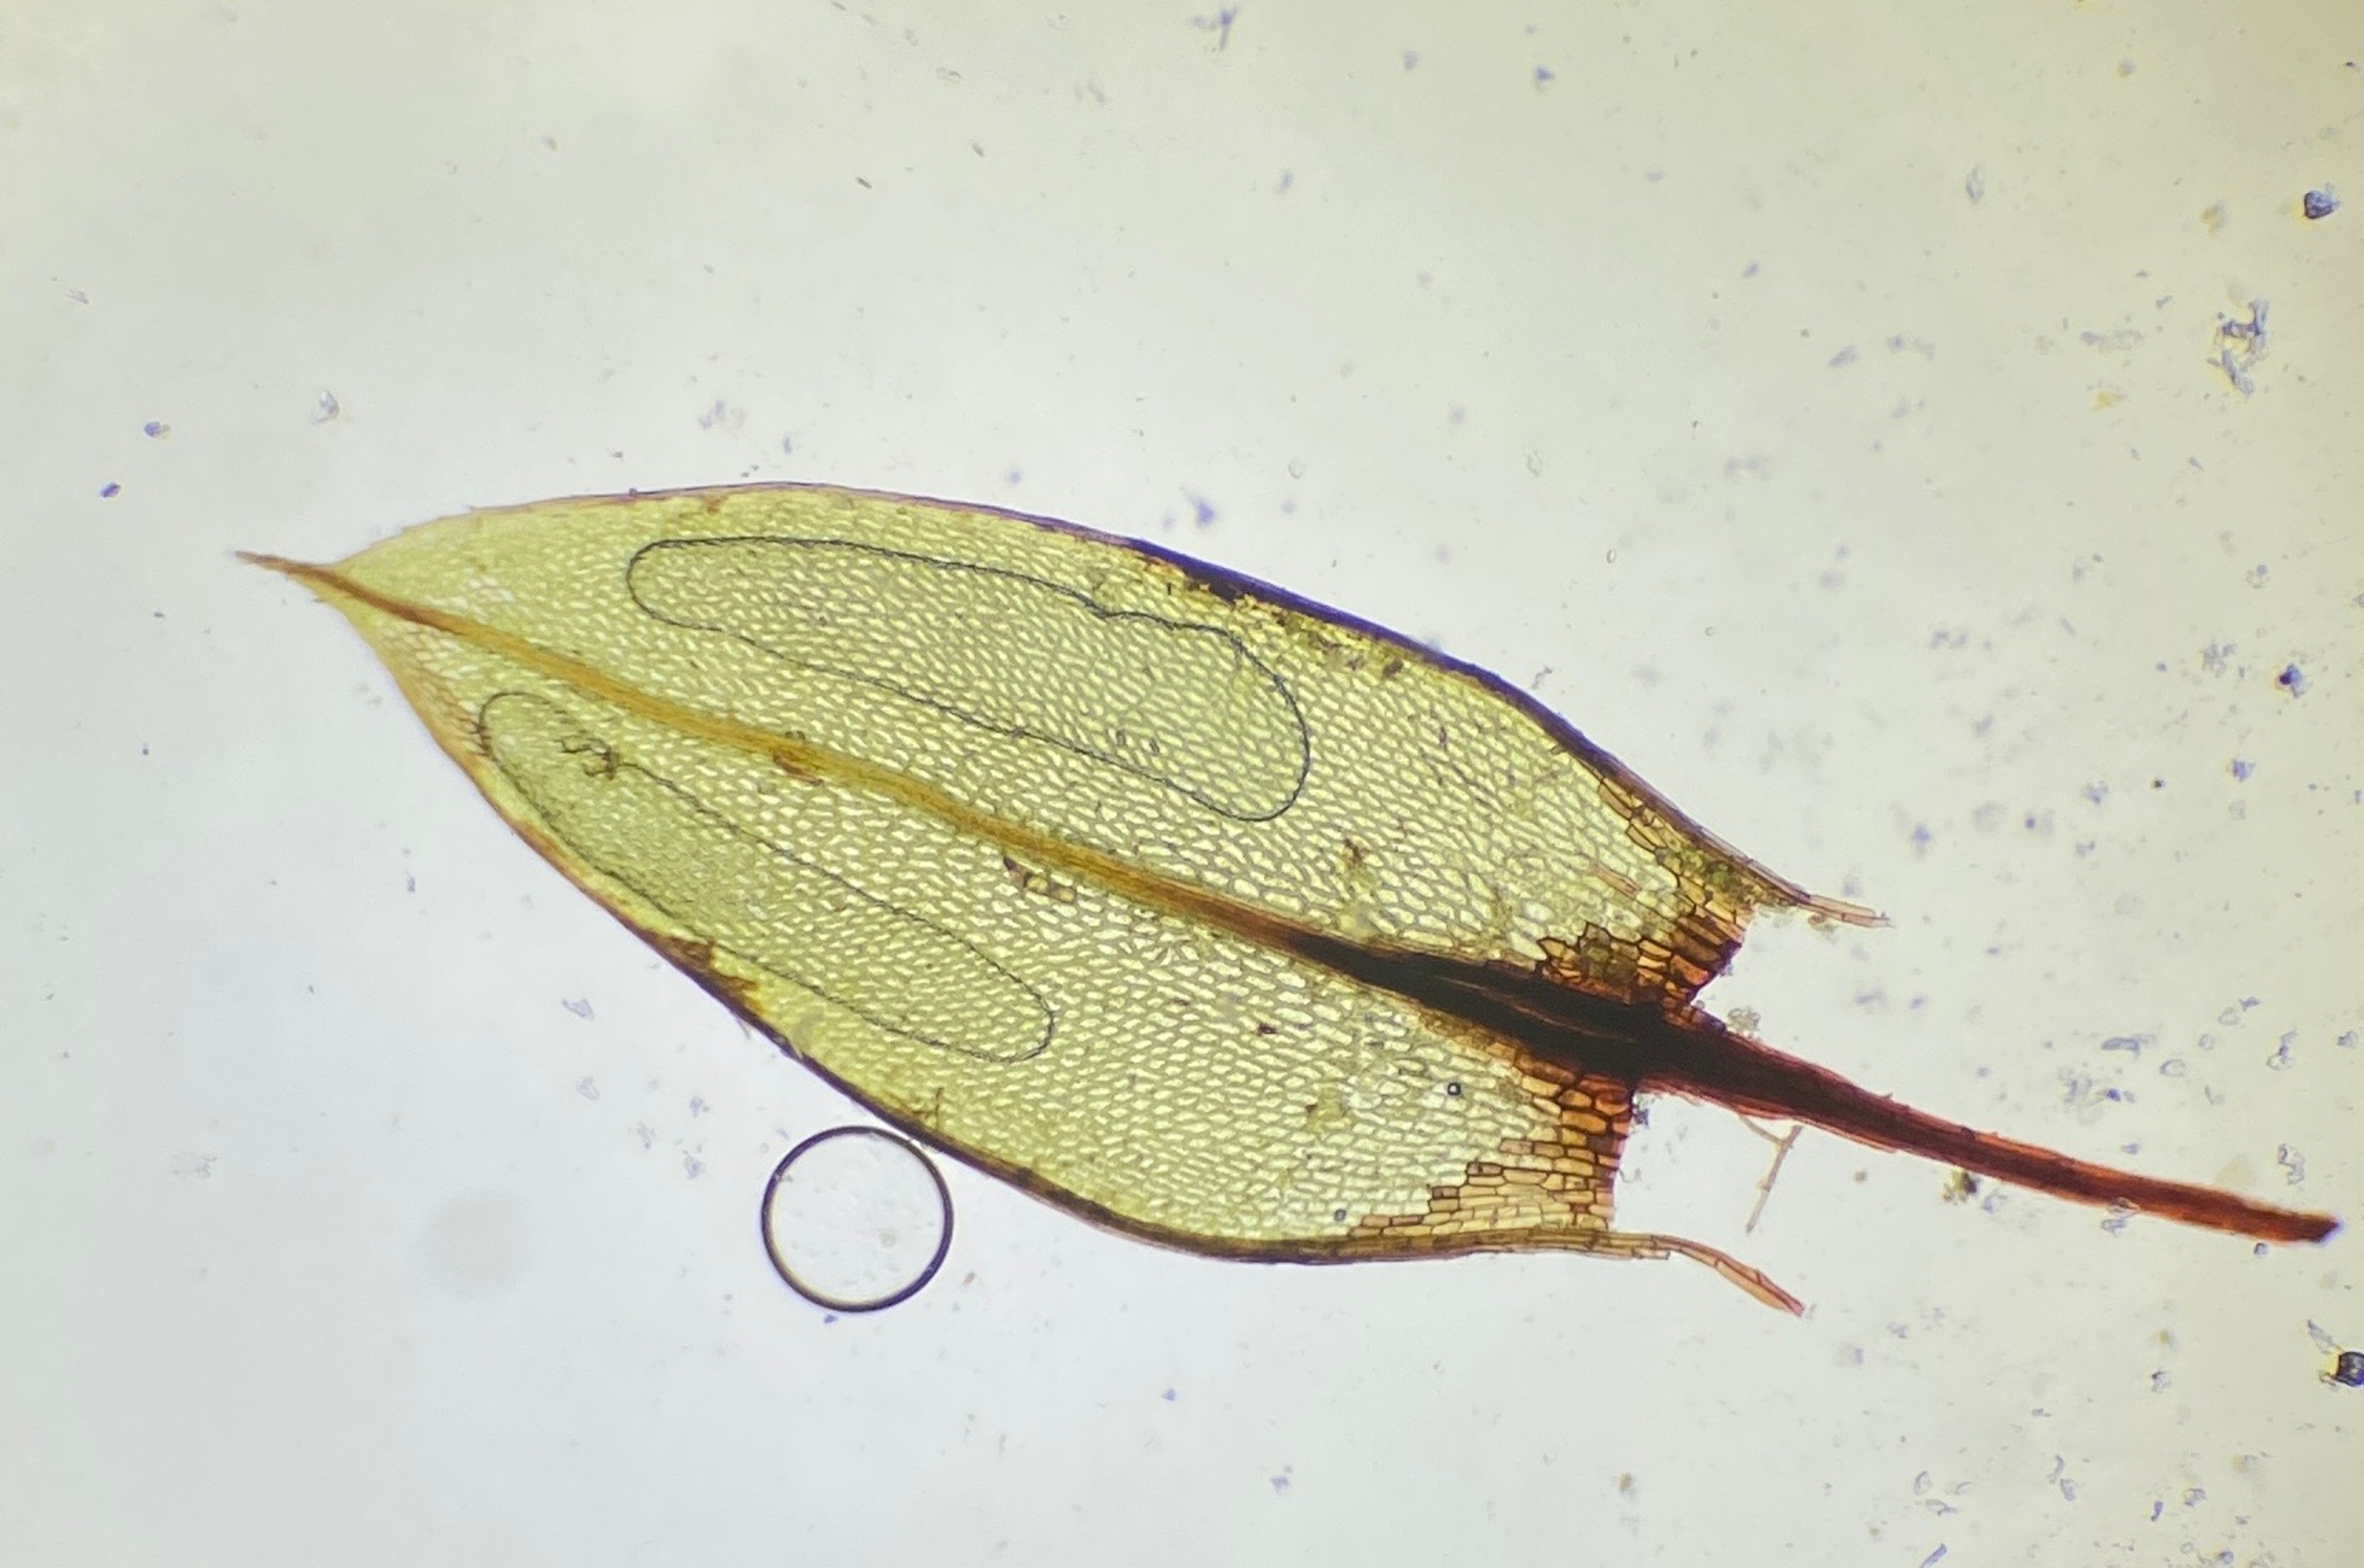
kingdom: Plantae
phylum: Bryophyta
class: Bryopsida
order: Bryales
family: Bryaceae
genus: Ptychostomum
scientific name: Ptychostomum pseudotriquetrum
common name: Nedløbende bryum
